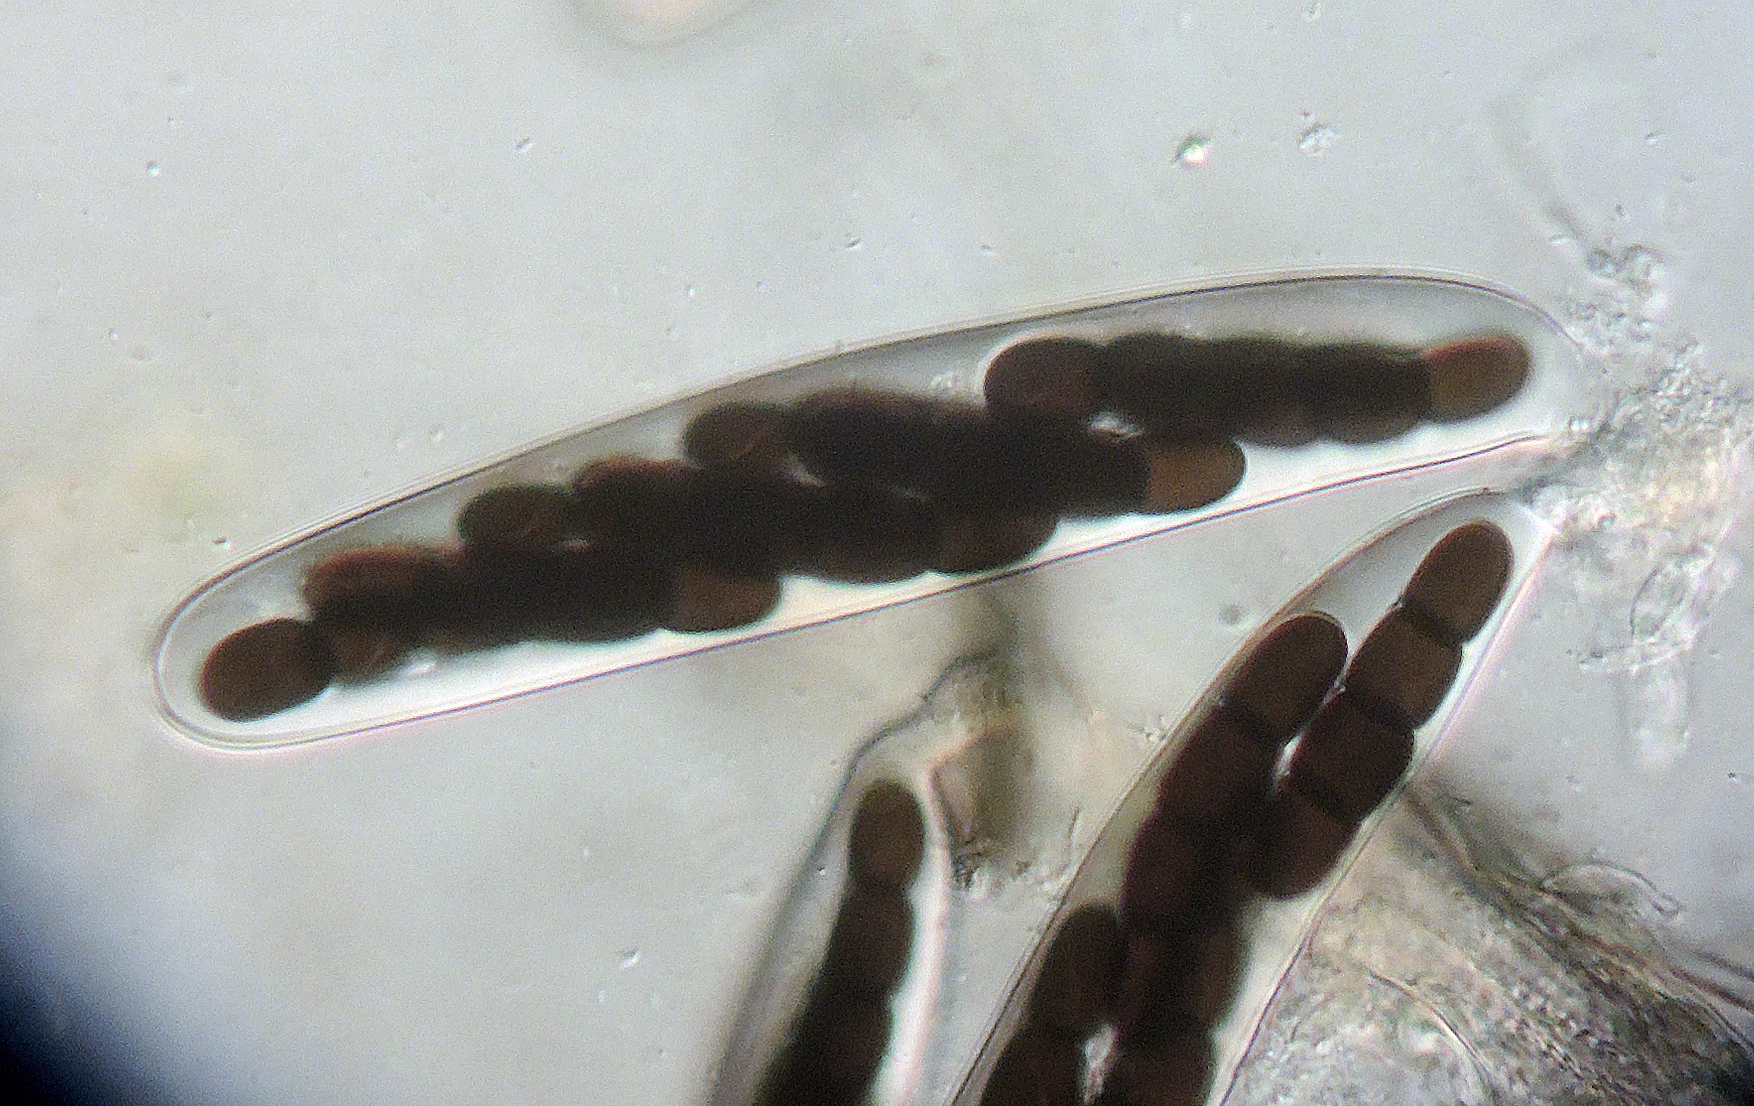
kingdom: Fungi
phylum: Ascomycota
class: Dothideomycetes
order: Pleosporales
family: Sporormiaceae
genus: Sporormiella
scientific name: Sporormiella intermedia
